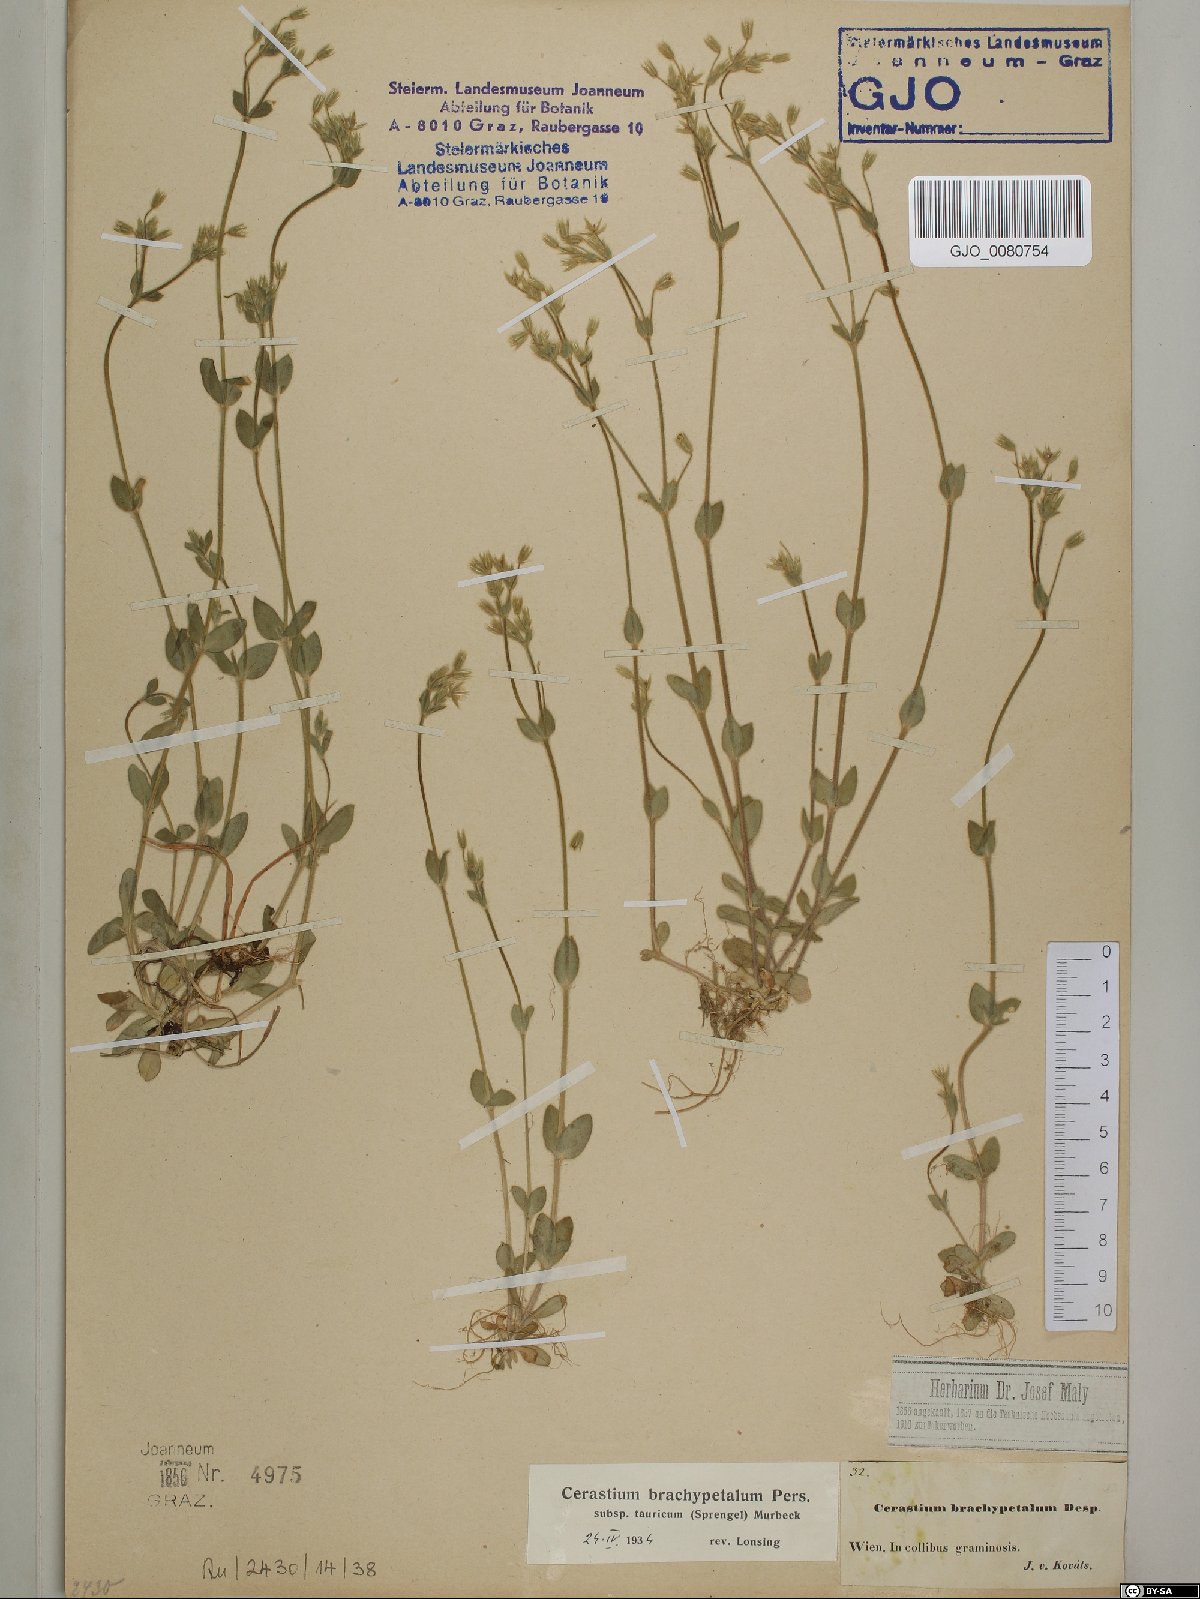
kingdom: Plantae
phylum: Tracheophyta
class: Magnoliopsida
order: Caryophyllales
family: Caryophyllaceae
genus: Cerastium
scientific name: Cerastium brachypetalum
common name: Grey mouse-ear
